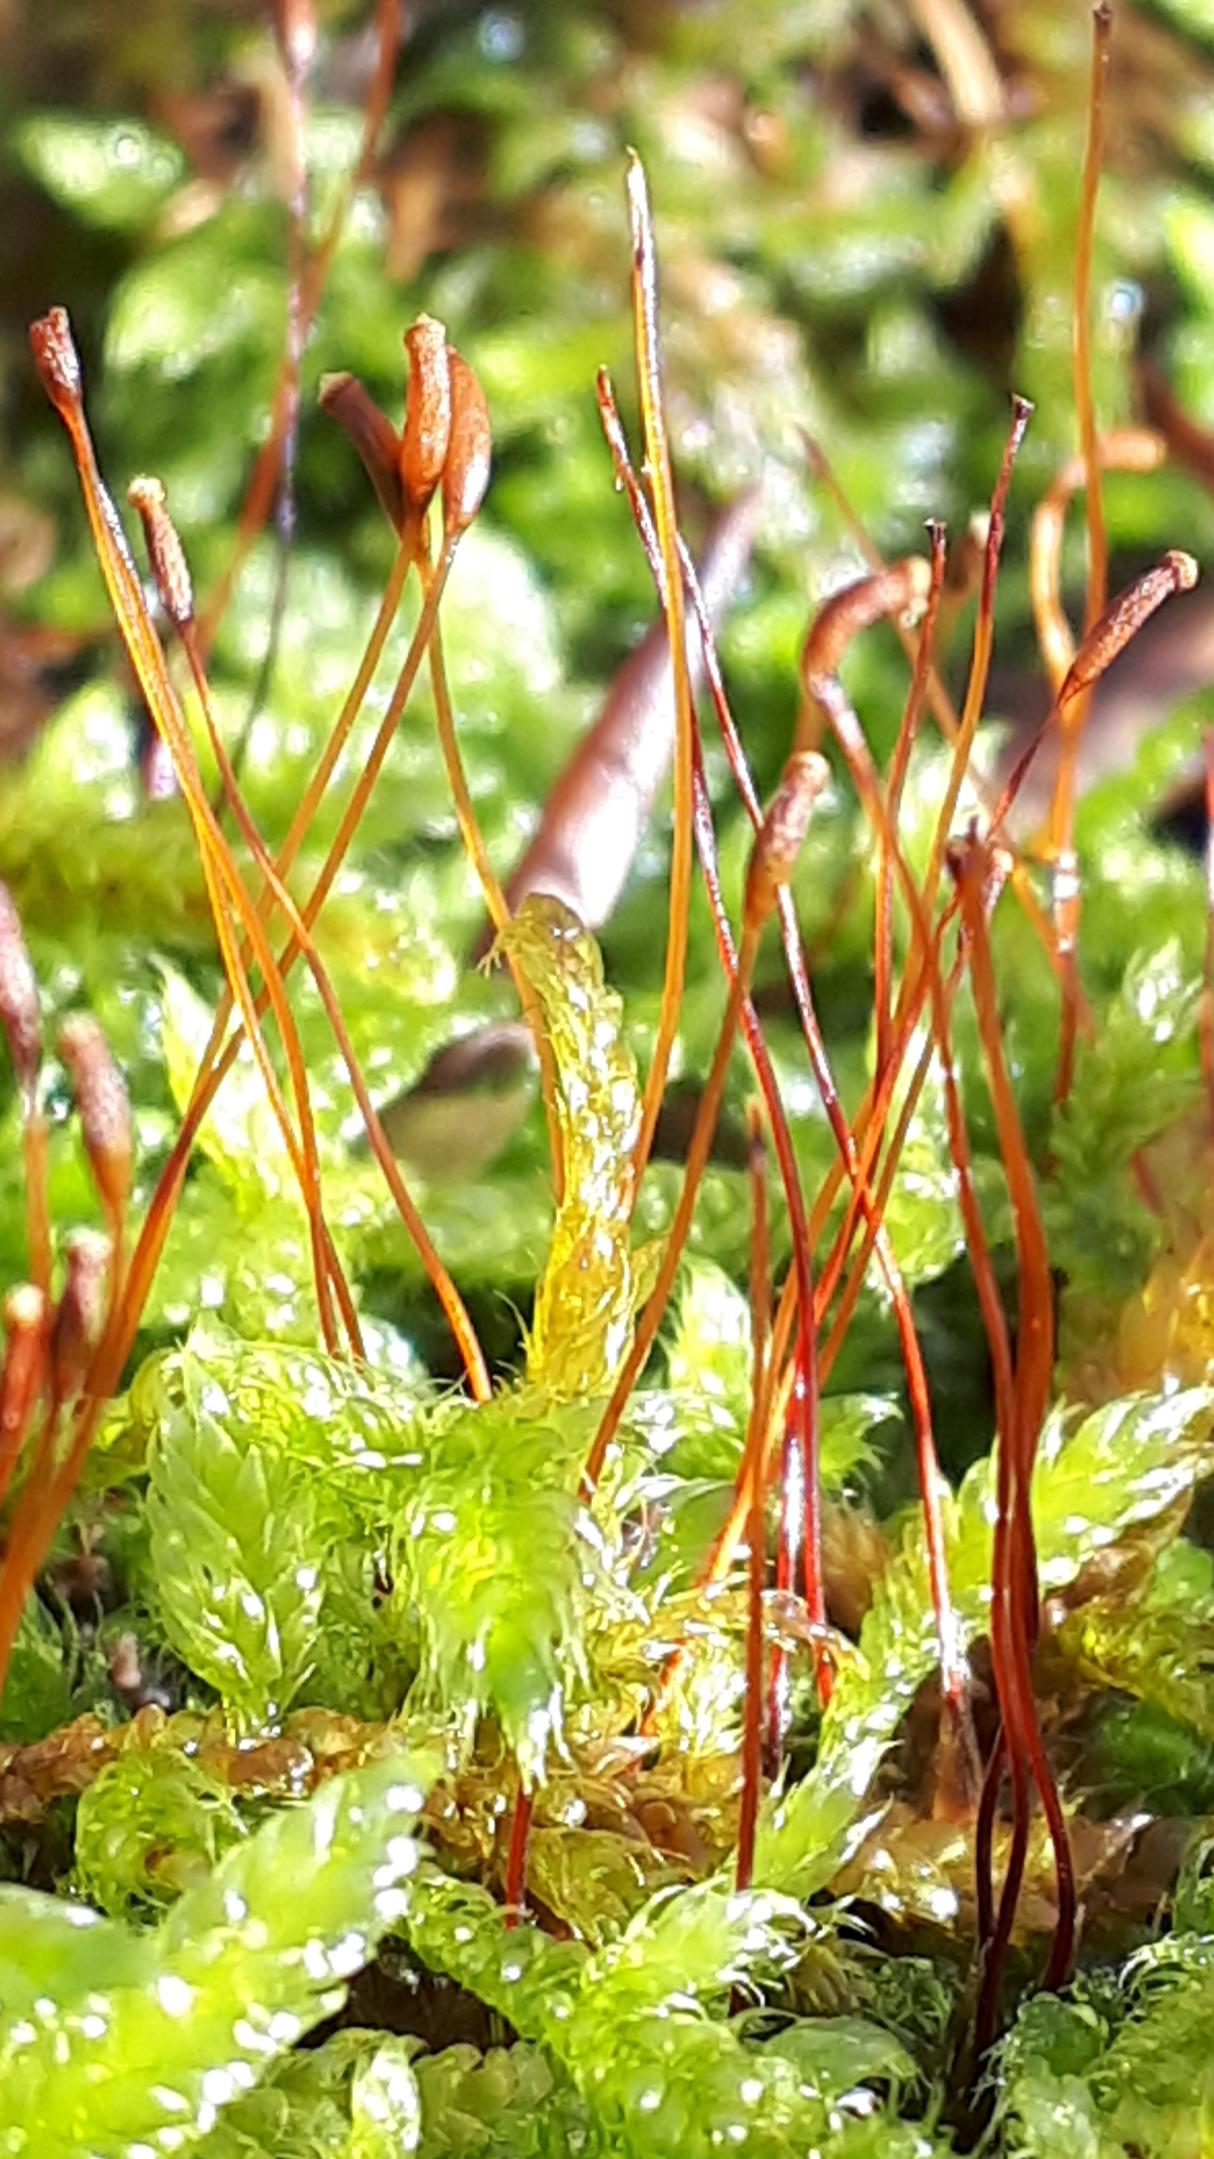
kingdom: Plantae
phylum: Bryophyta
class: Bryopsida
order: Hypnales
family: Hypnaceae
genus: Hypnum
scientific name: Hypnum cupressiforme
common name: Almindelig cypresmos
